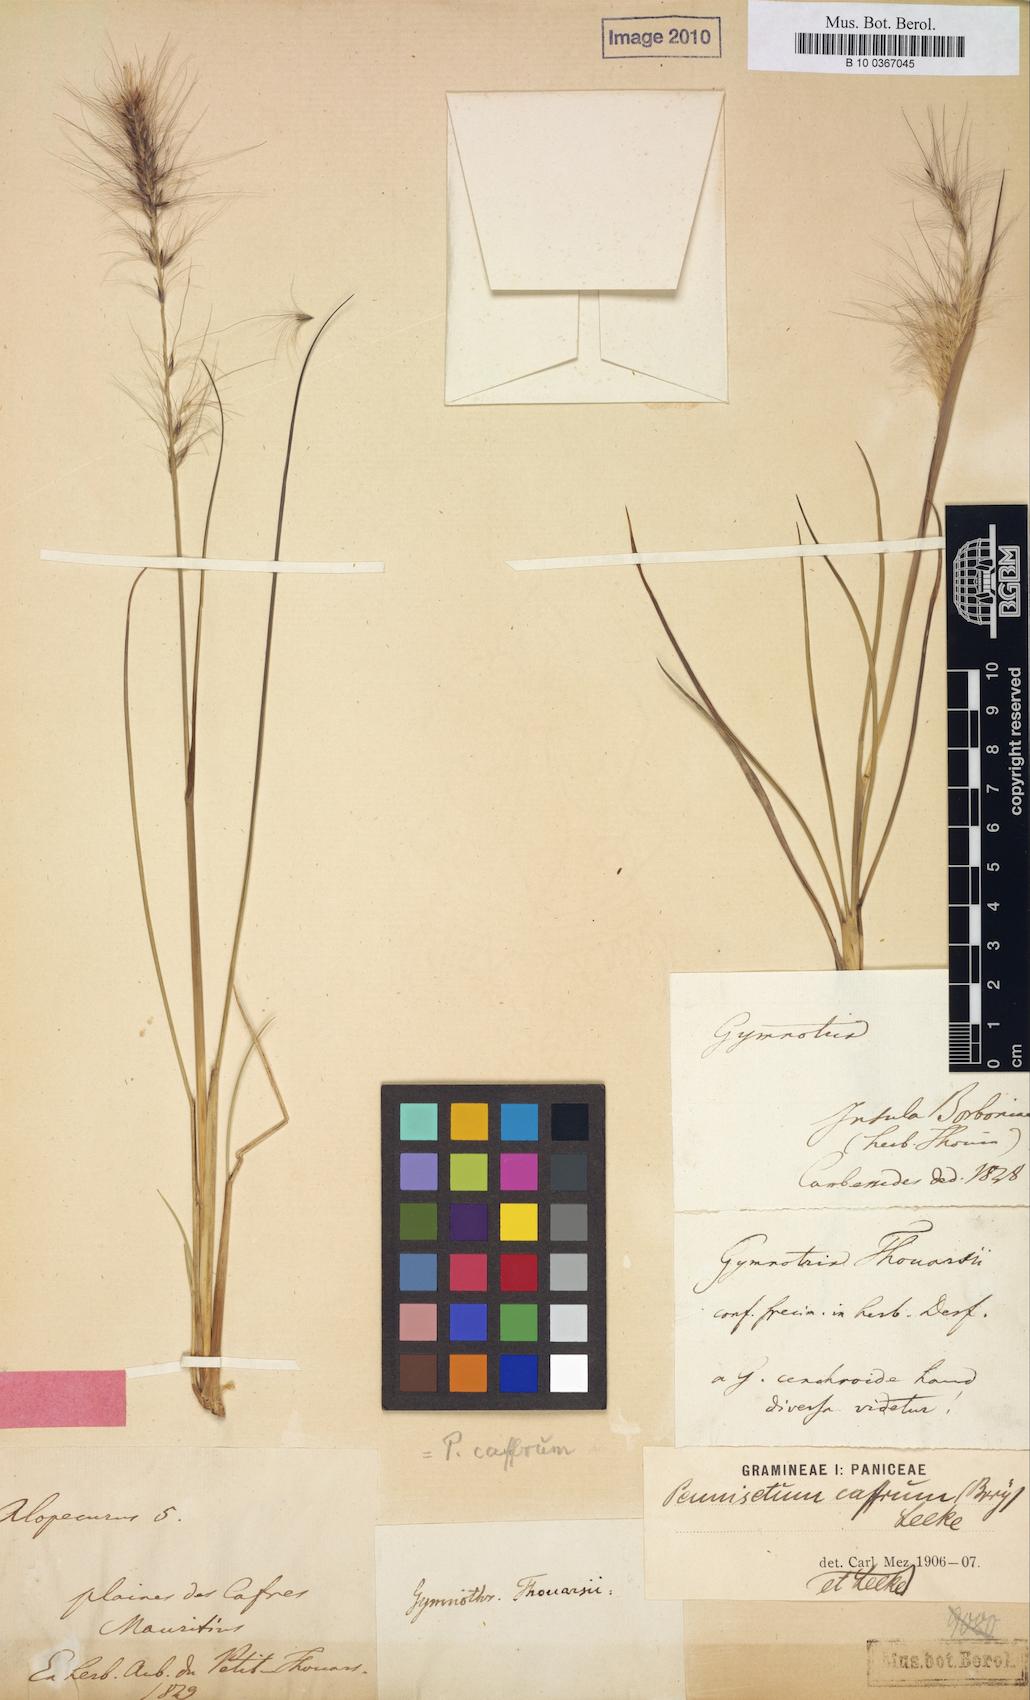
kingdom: Plantae
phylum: Tracheophyta
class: Liliopsida
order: Poales
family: Poaceae
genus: Cenchrus
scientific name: Cenchrus alopecuroides
